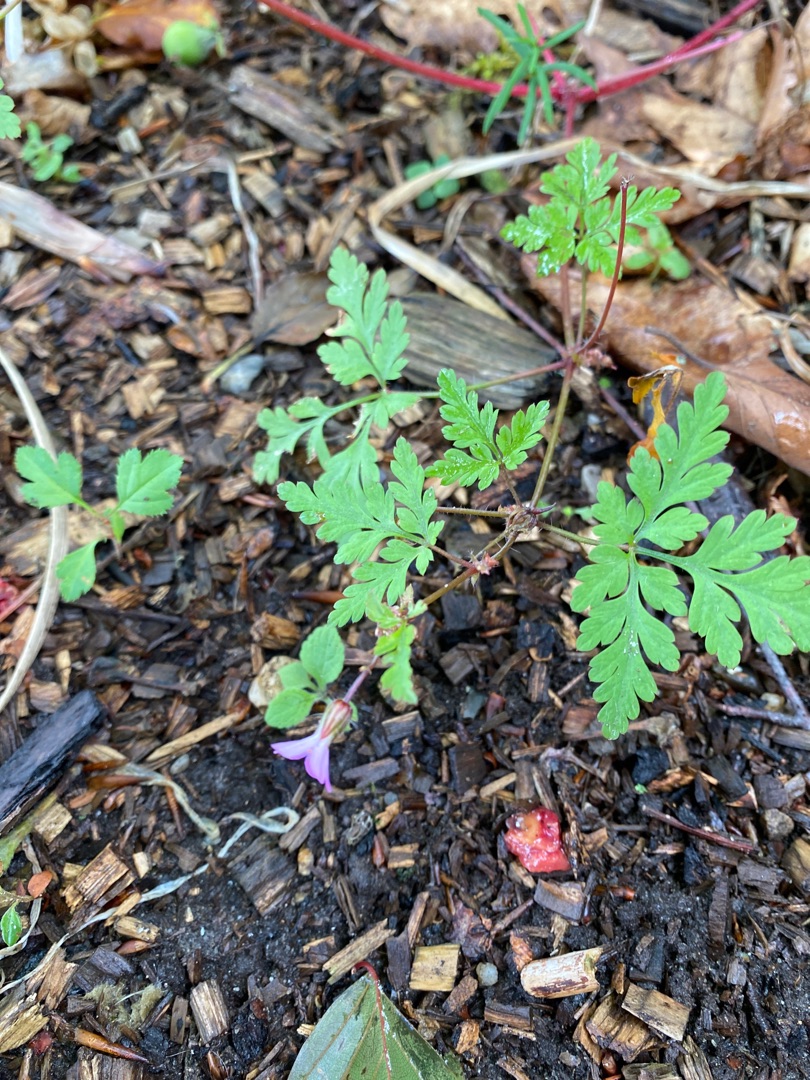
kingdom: Plantae
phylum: Tracheophyta
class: Magnoliopsida
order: Geraniales
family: Geraniaceae
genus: Geranium
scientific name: Geranium robertianum
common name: Stinkende storkenæb
